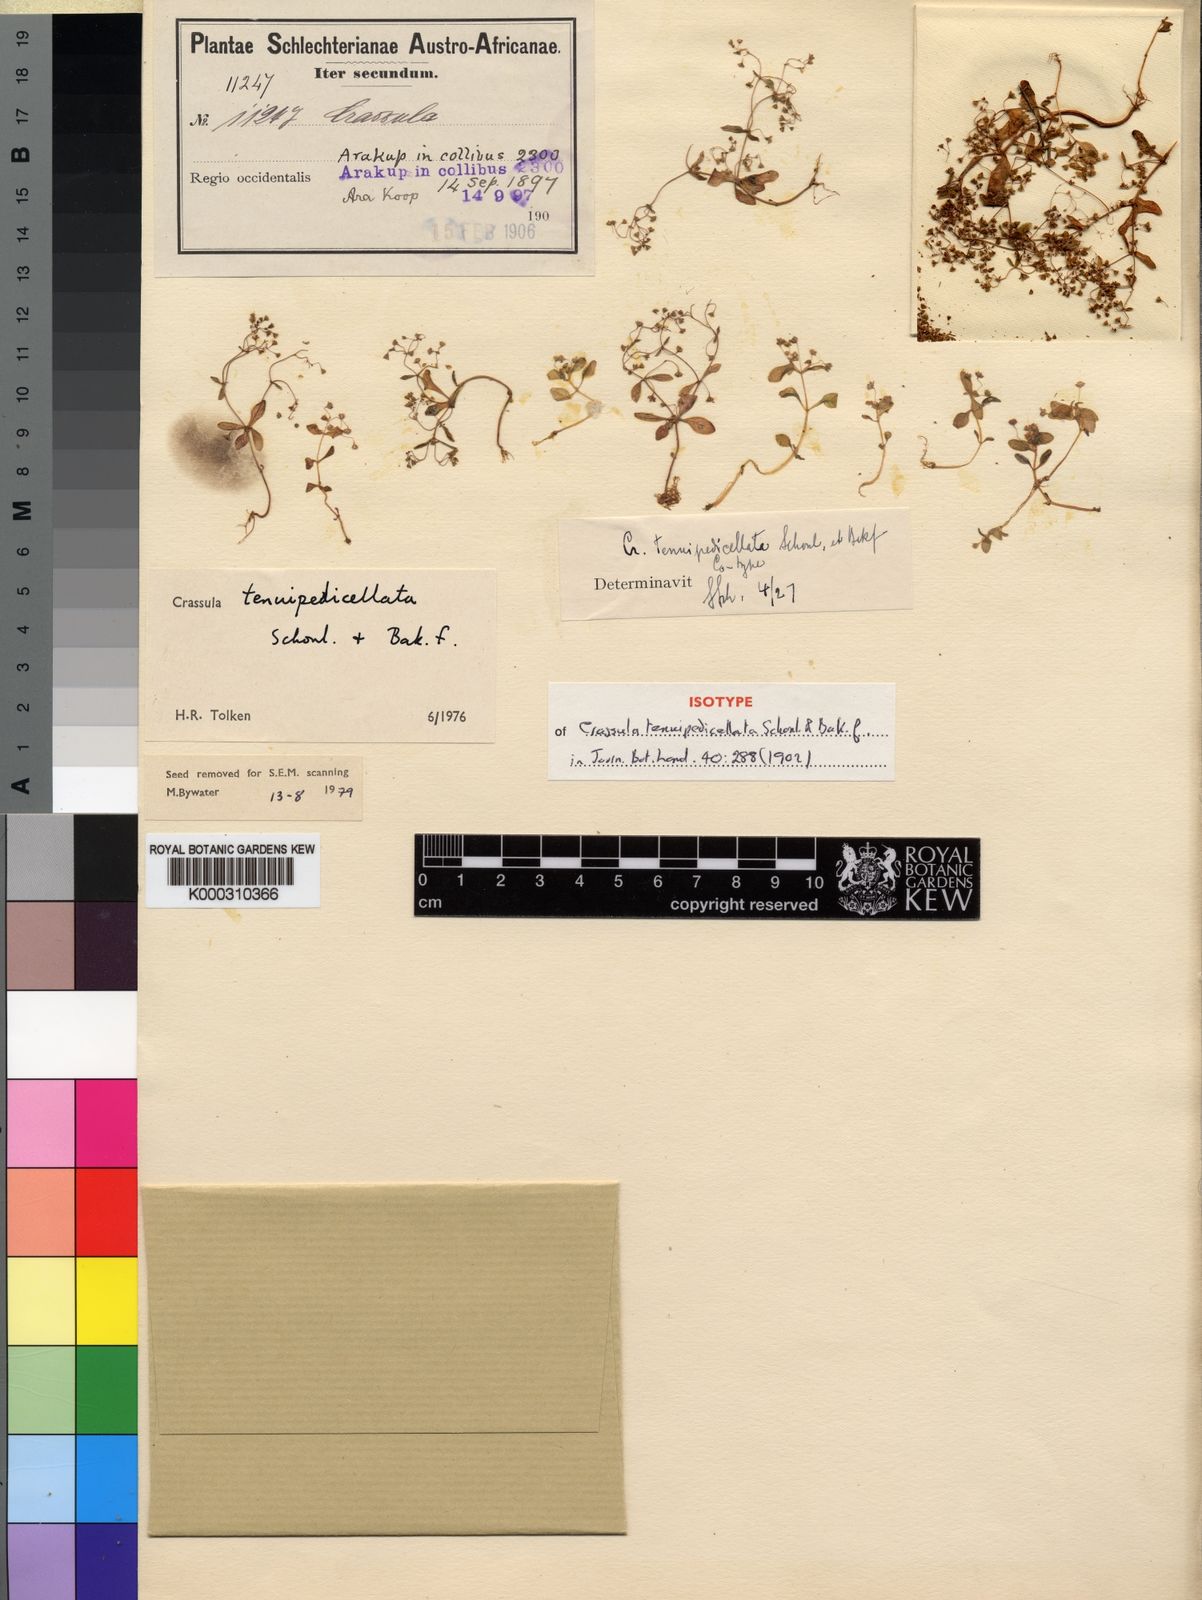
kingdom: Plantae
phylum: Tracheophyta
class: Magnoliopsida
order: Saxifragales
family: Crassulaceae
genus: Crassula
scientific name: Crassula
